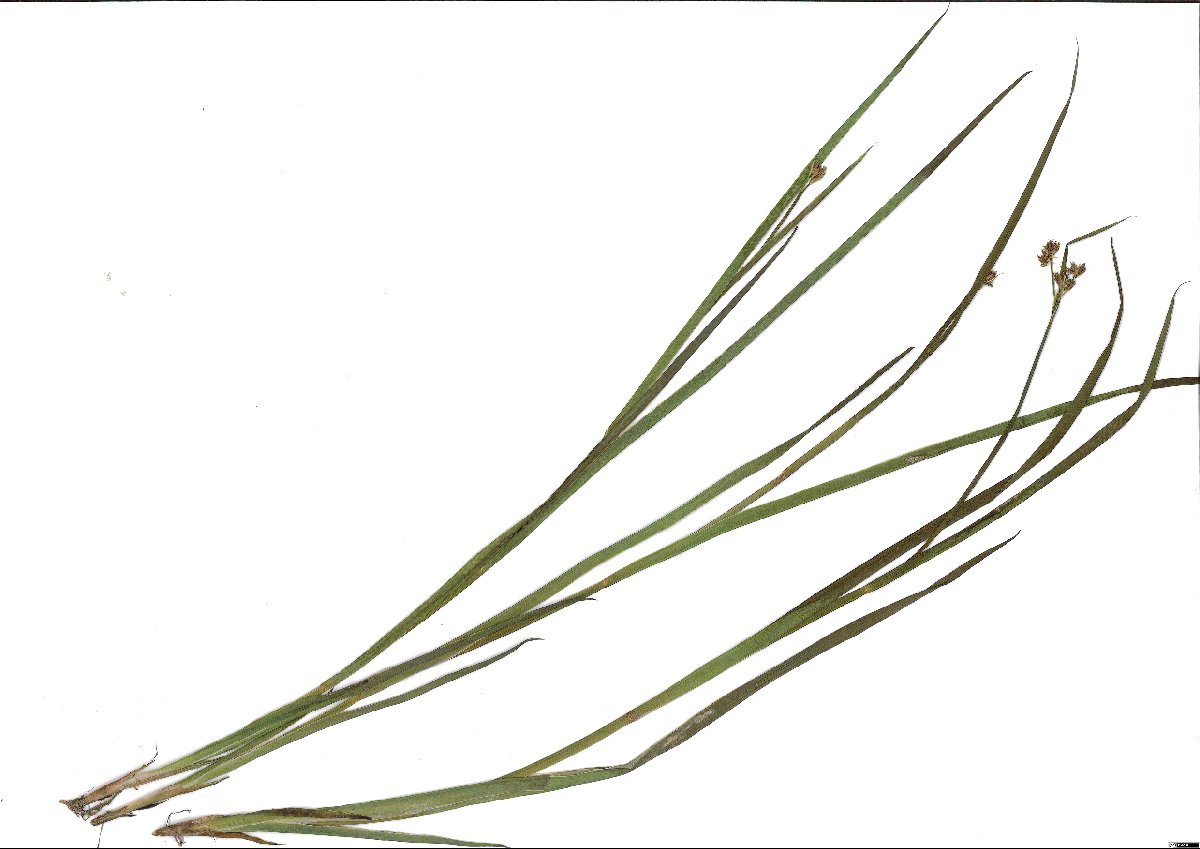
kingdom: Plantae
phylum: Tracheophyta
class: Liliopsida
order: Poales
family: Juncaceae
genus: Juncus
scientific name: Juncus ensifolius
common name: Sword-leaved rush
